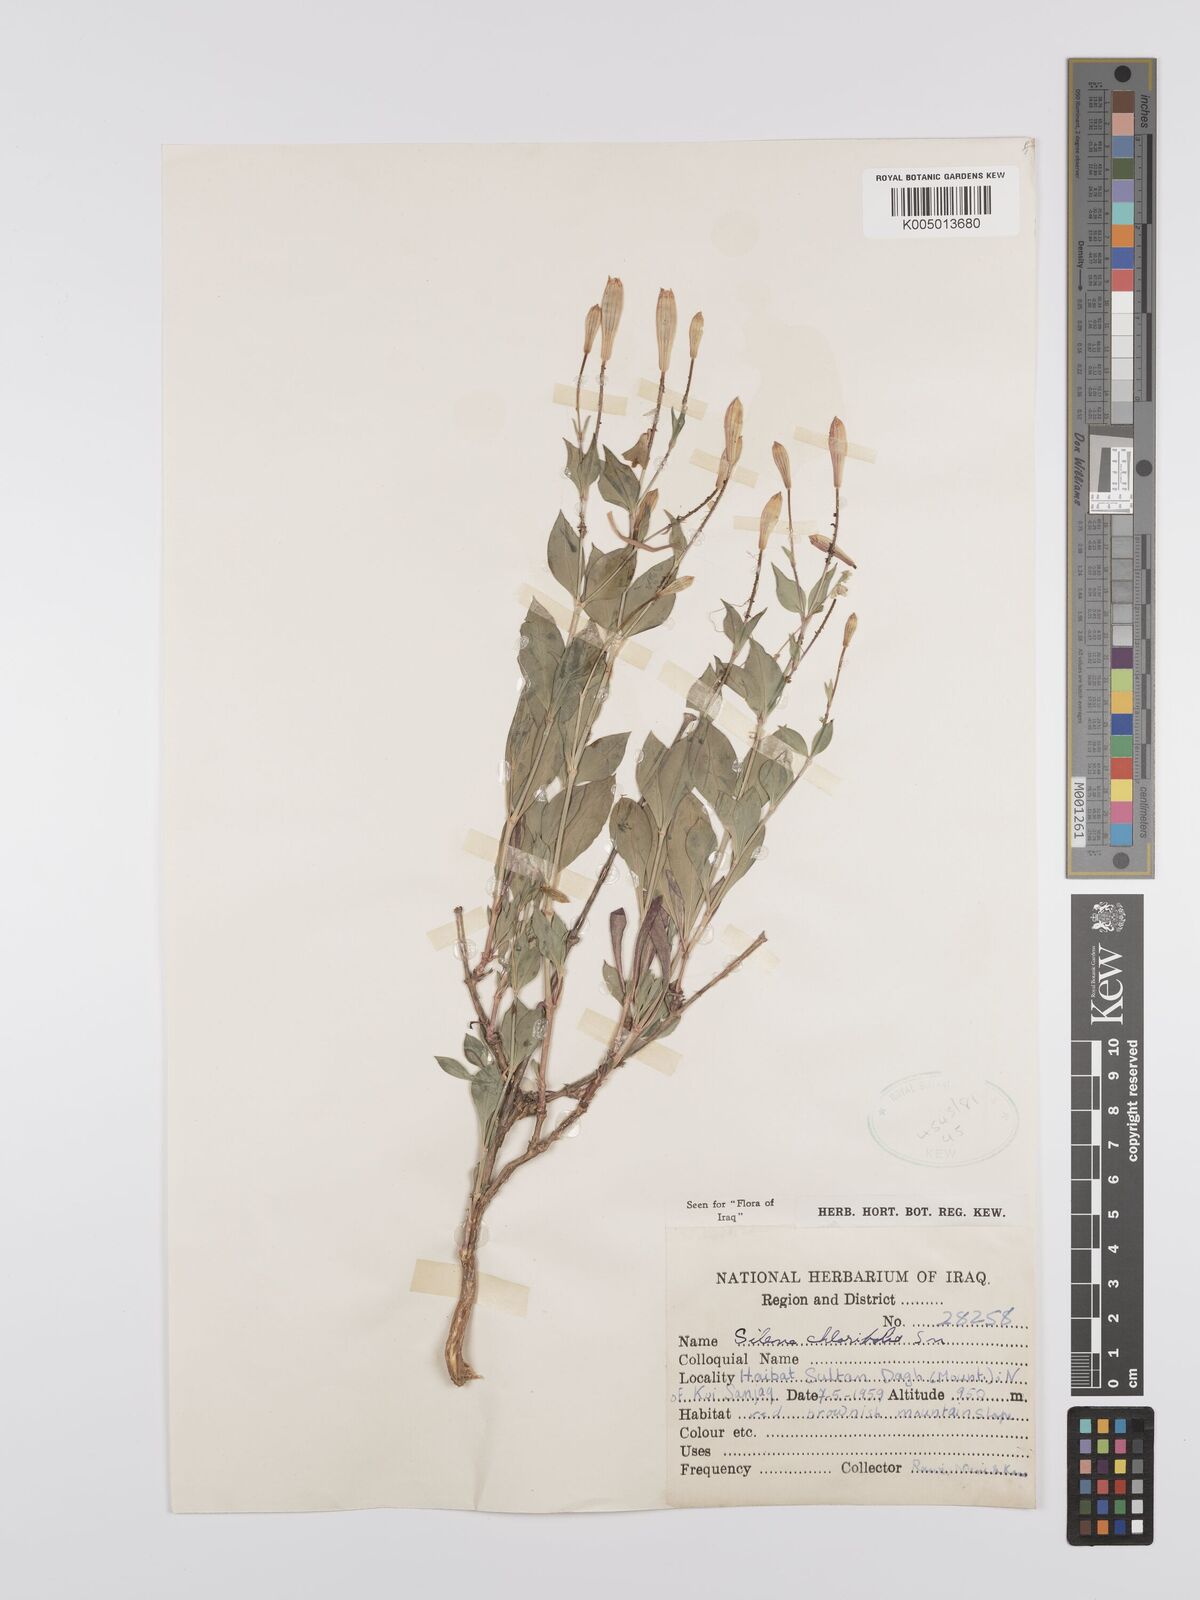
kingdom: Plantae
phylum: Tracheophyta
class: Magnoliopsida
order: Caryophyllales
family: Caryophyllaceae
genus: Silene
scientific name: Silene chlorifolia
